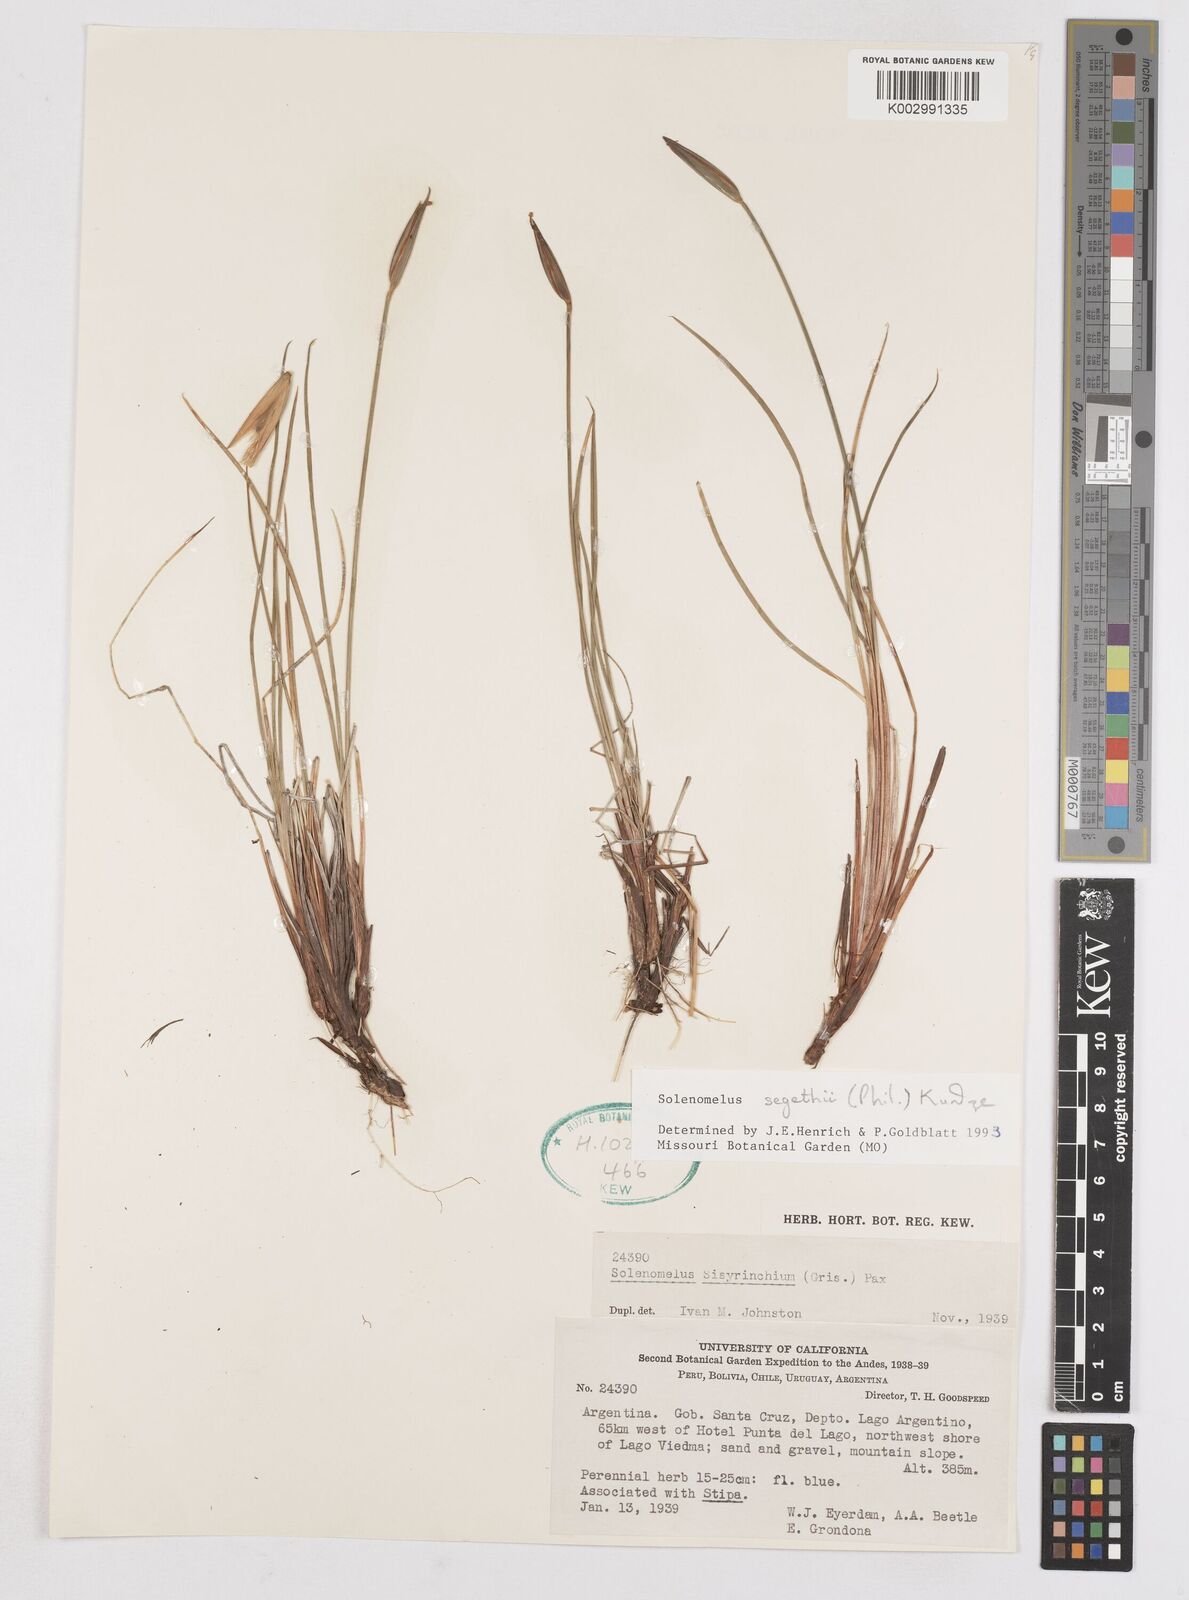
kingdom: Plantae
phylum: Tracheophyta
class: Liliopsida
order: Asparagales
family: Iridaceae
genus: Solenomelus
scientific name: Solenomelus segethi
